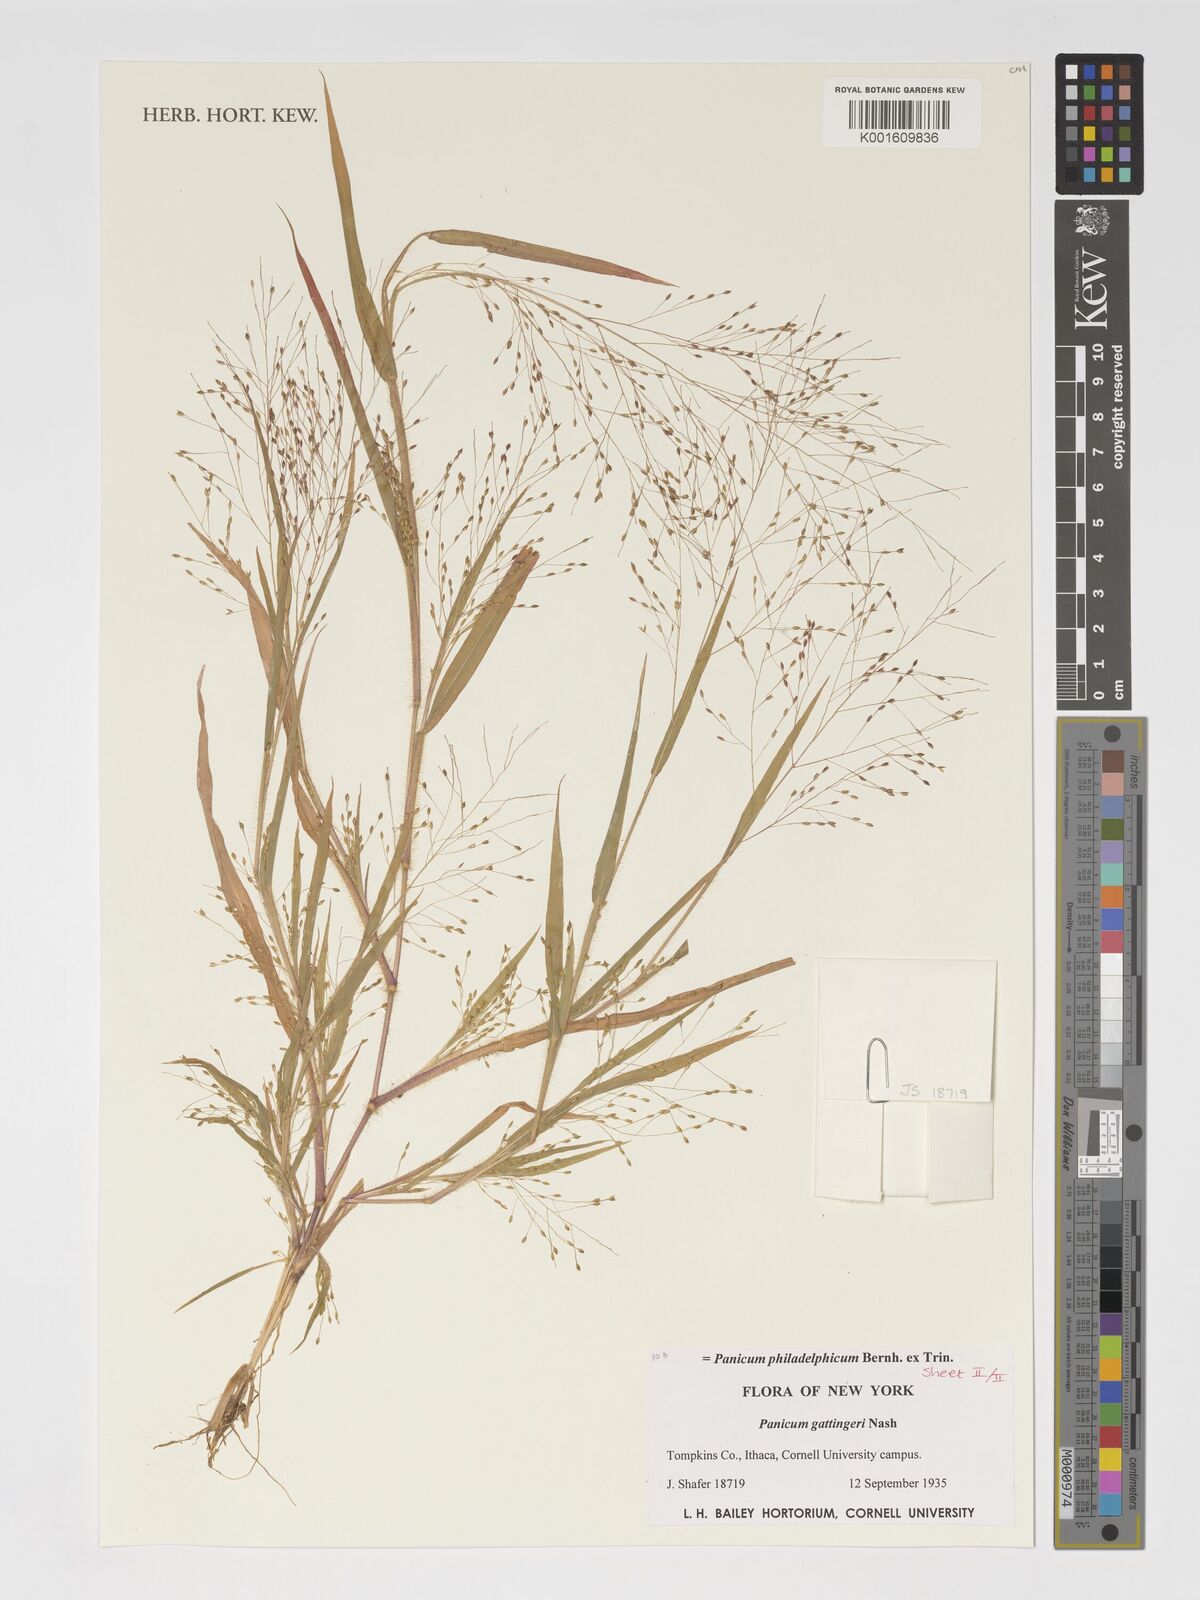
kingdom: Plantae
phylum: Tracheophyta
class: Liliopsida
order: Poales
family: Poaceae
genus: Panicum
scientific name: Panicum philadelphicum
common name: Philadelphia witchgrass
